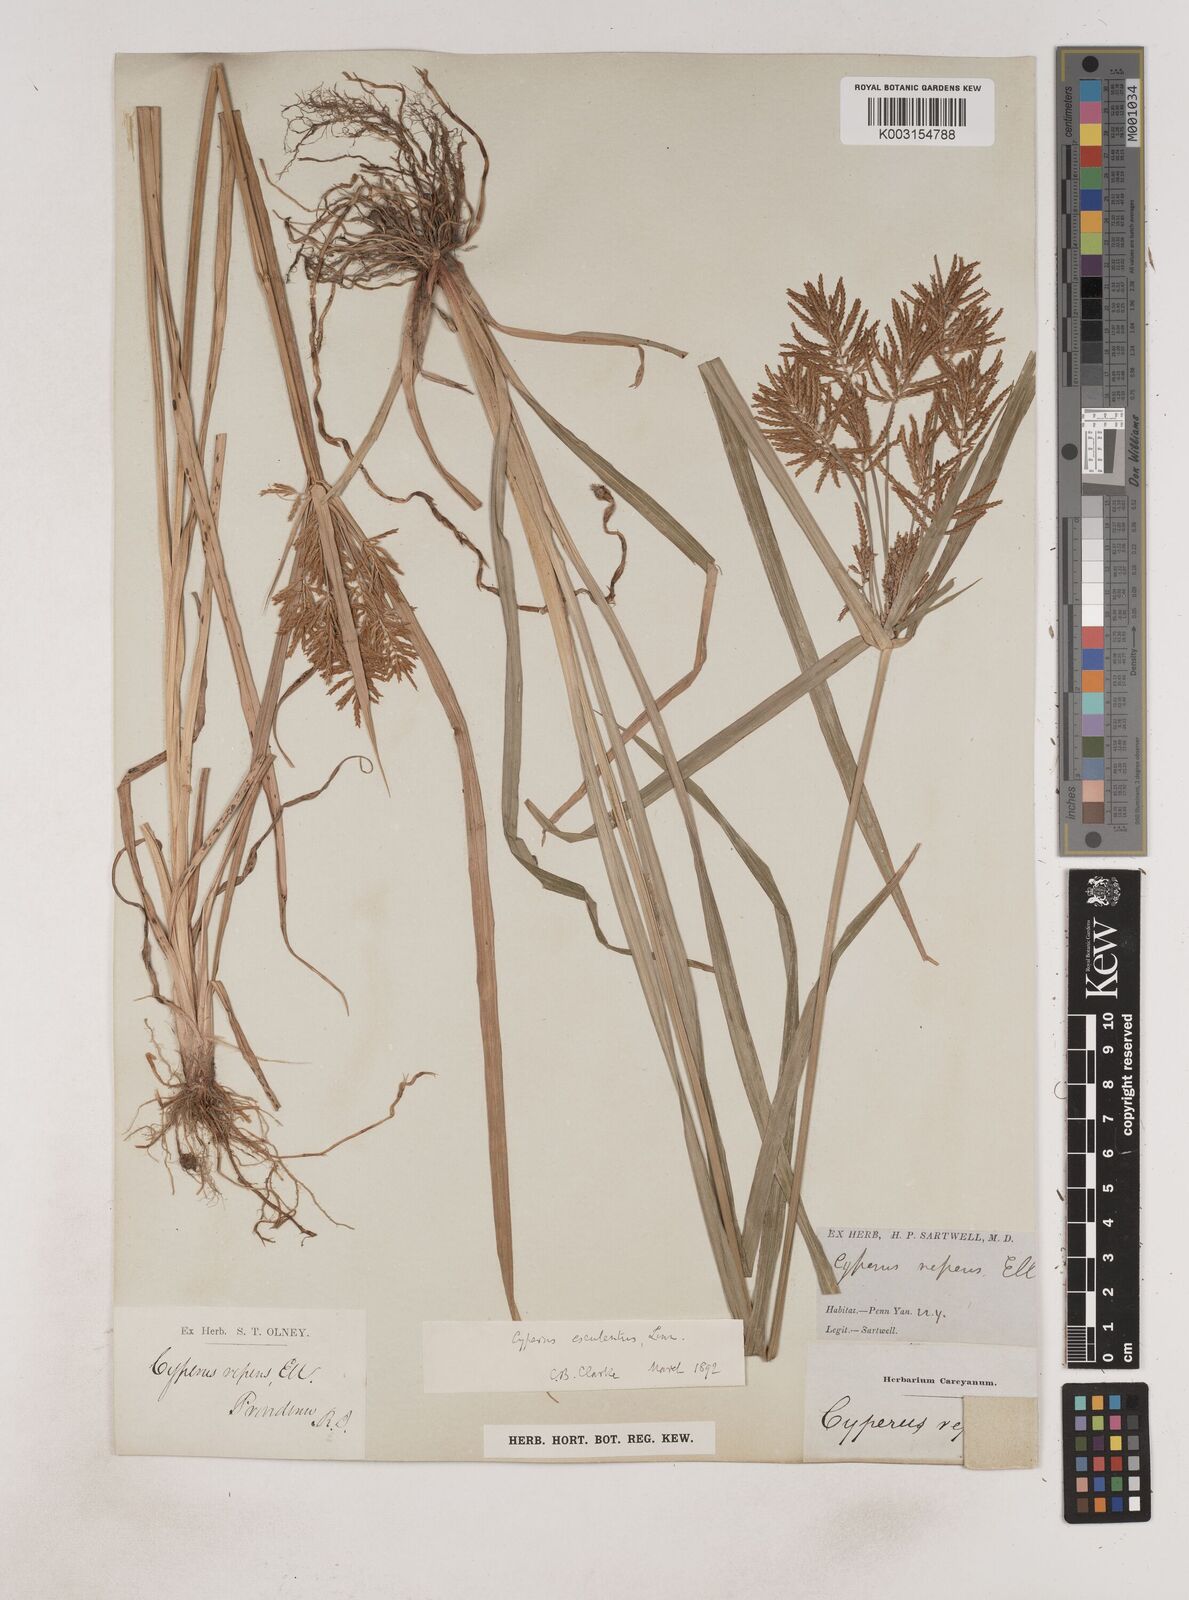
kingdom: Plantae
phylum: Tracheophyta
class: Liliopsida
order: Poales
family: Cyperaceae
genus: Cyperus
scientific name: Cyperus esculentus
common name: Yellow nutsedge
